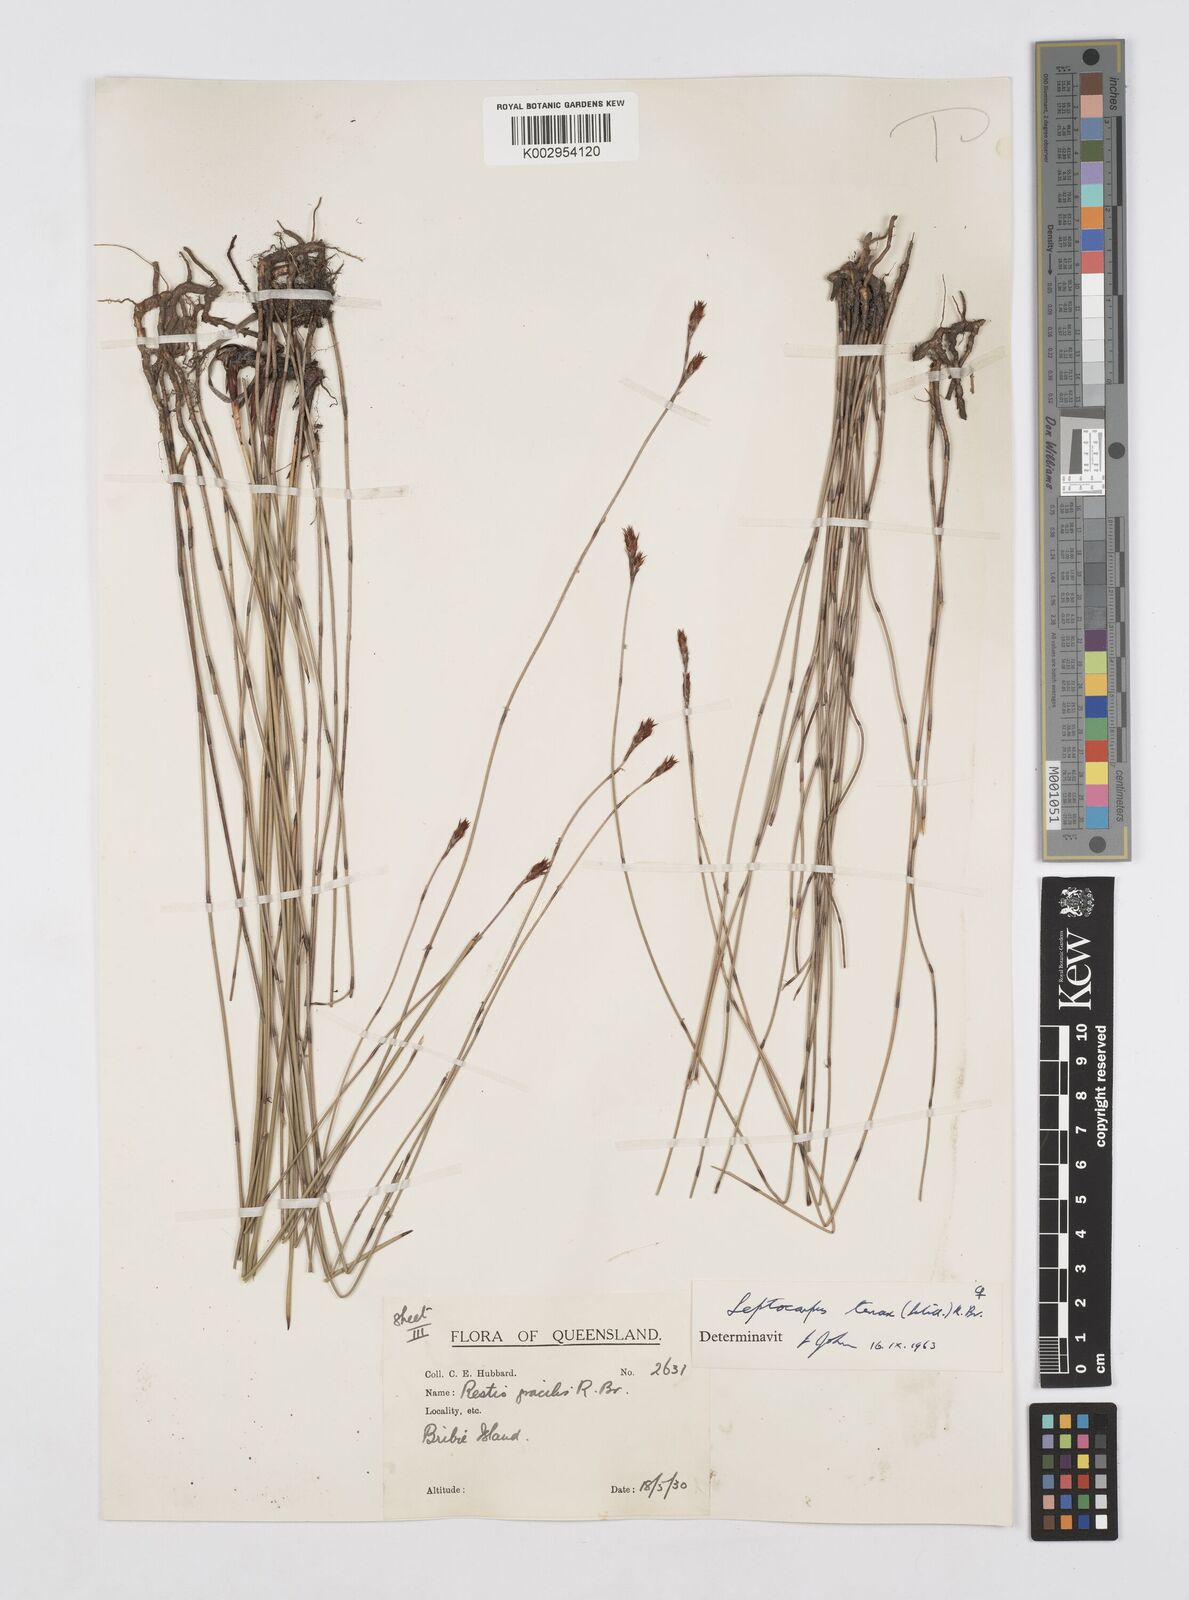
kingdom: Plantae
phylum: Tracheophyta
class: Liliopsida
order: Poales
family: Restionaceae
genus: Leptocarpus
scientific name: Leptocarpus tenax
